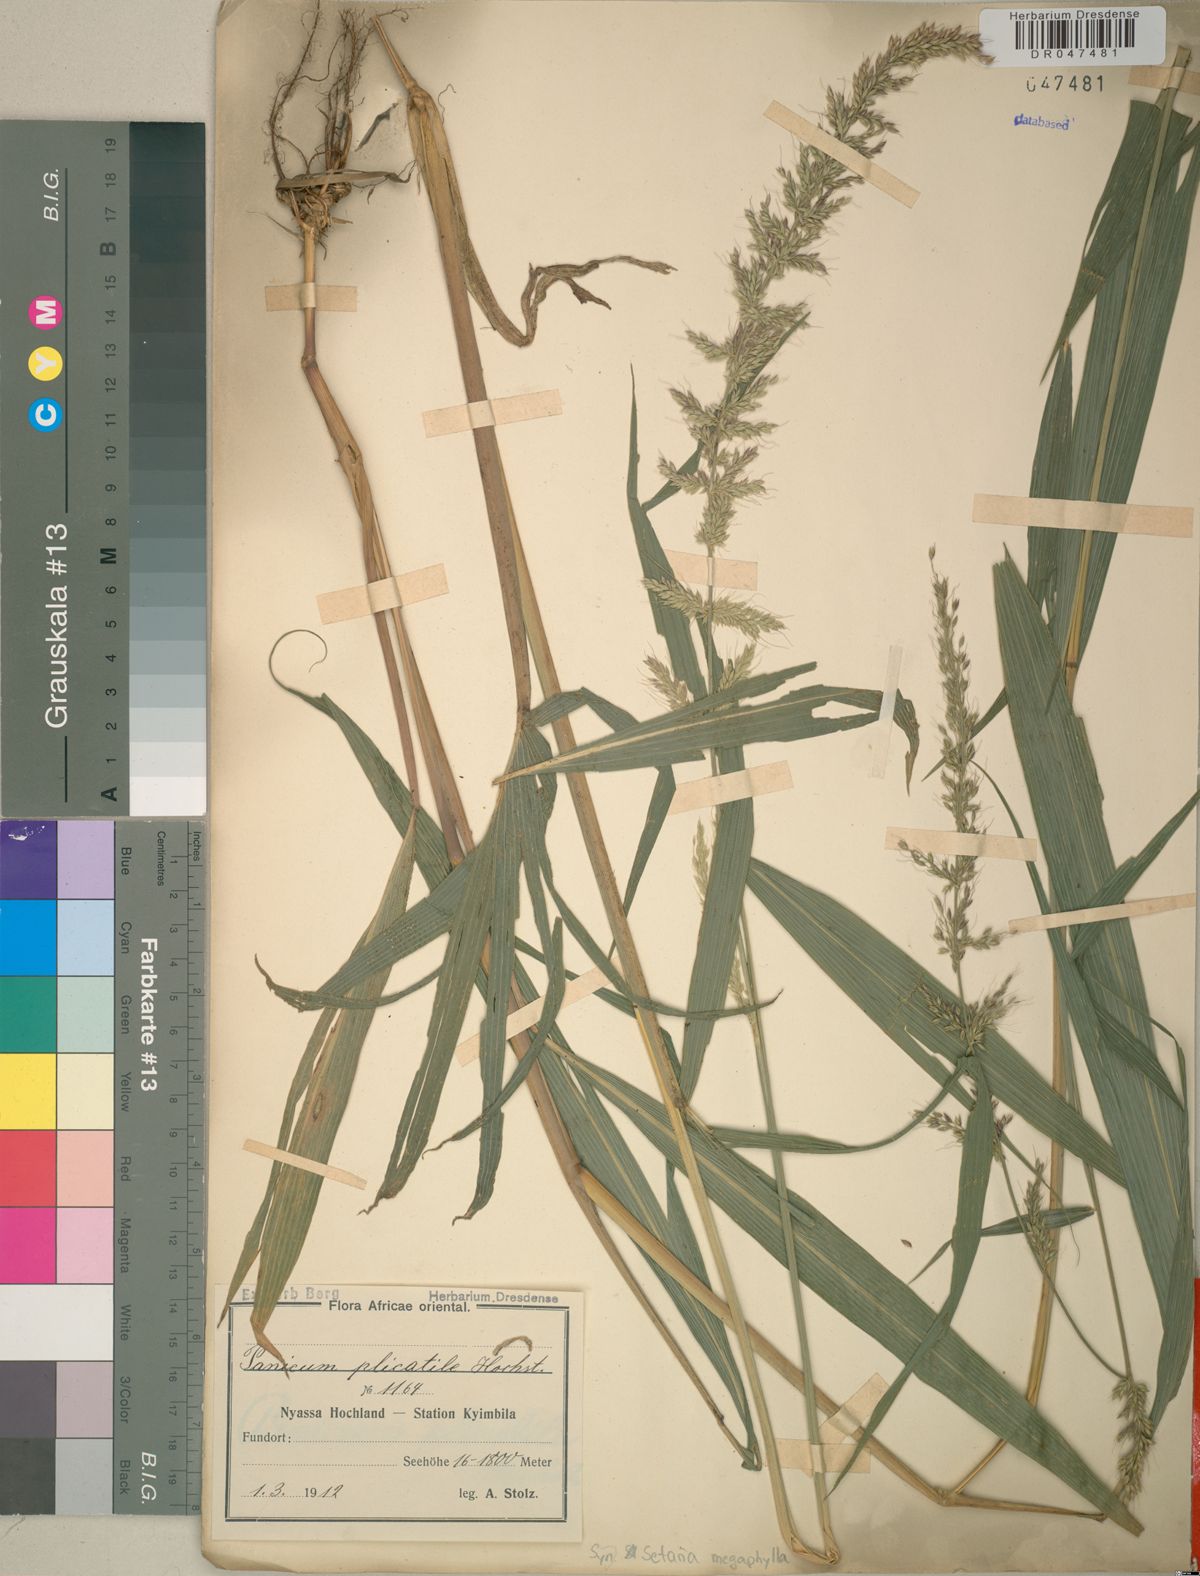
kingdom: Plantae
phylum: Tracheophyta
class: Liliopsida
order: Poales
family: Poaceae
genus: Setaria
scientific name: Setaria megaphylla
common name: Bigleaf bristlegrass
